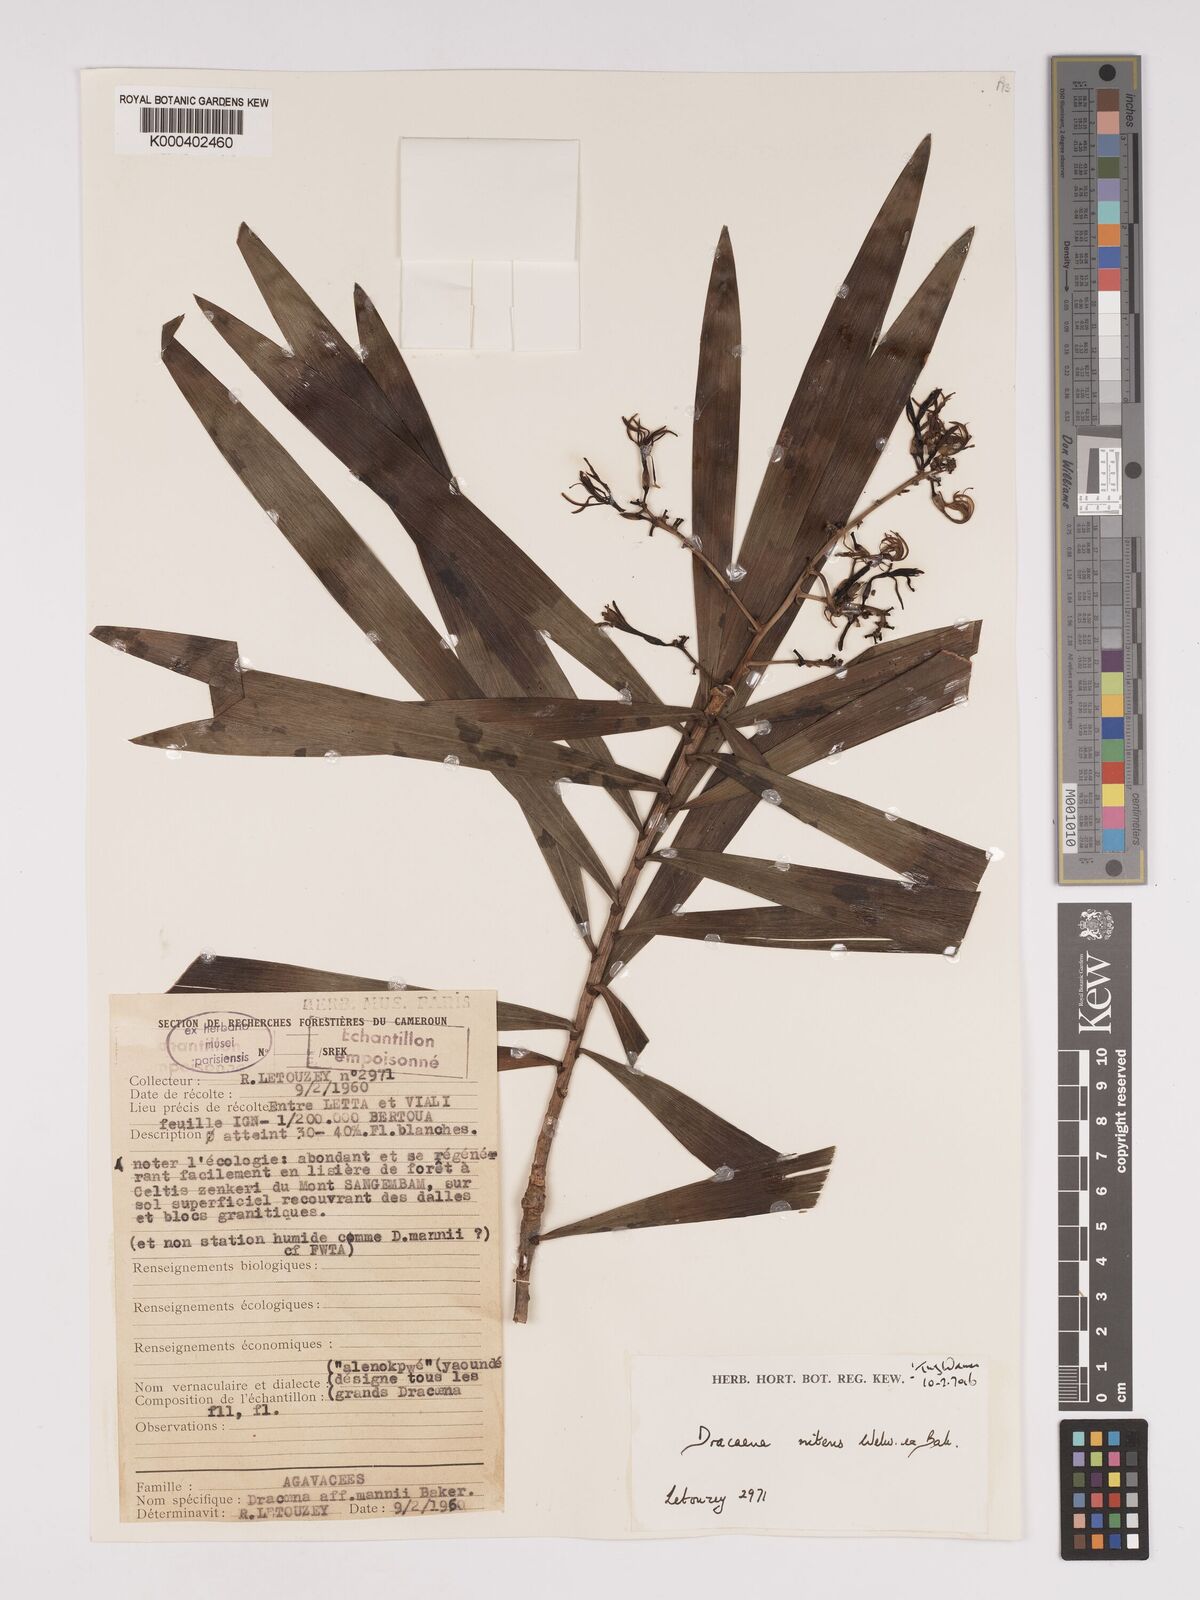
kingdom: Plantae
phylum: Tracheophyta
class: Liliopsida
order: Asparagales
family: Asparagaceae
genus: Dracaena
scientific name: Dracaena nitens
